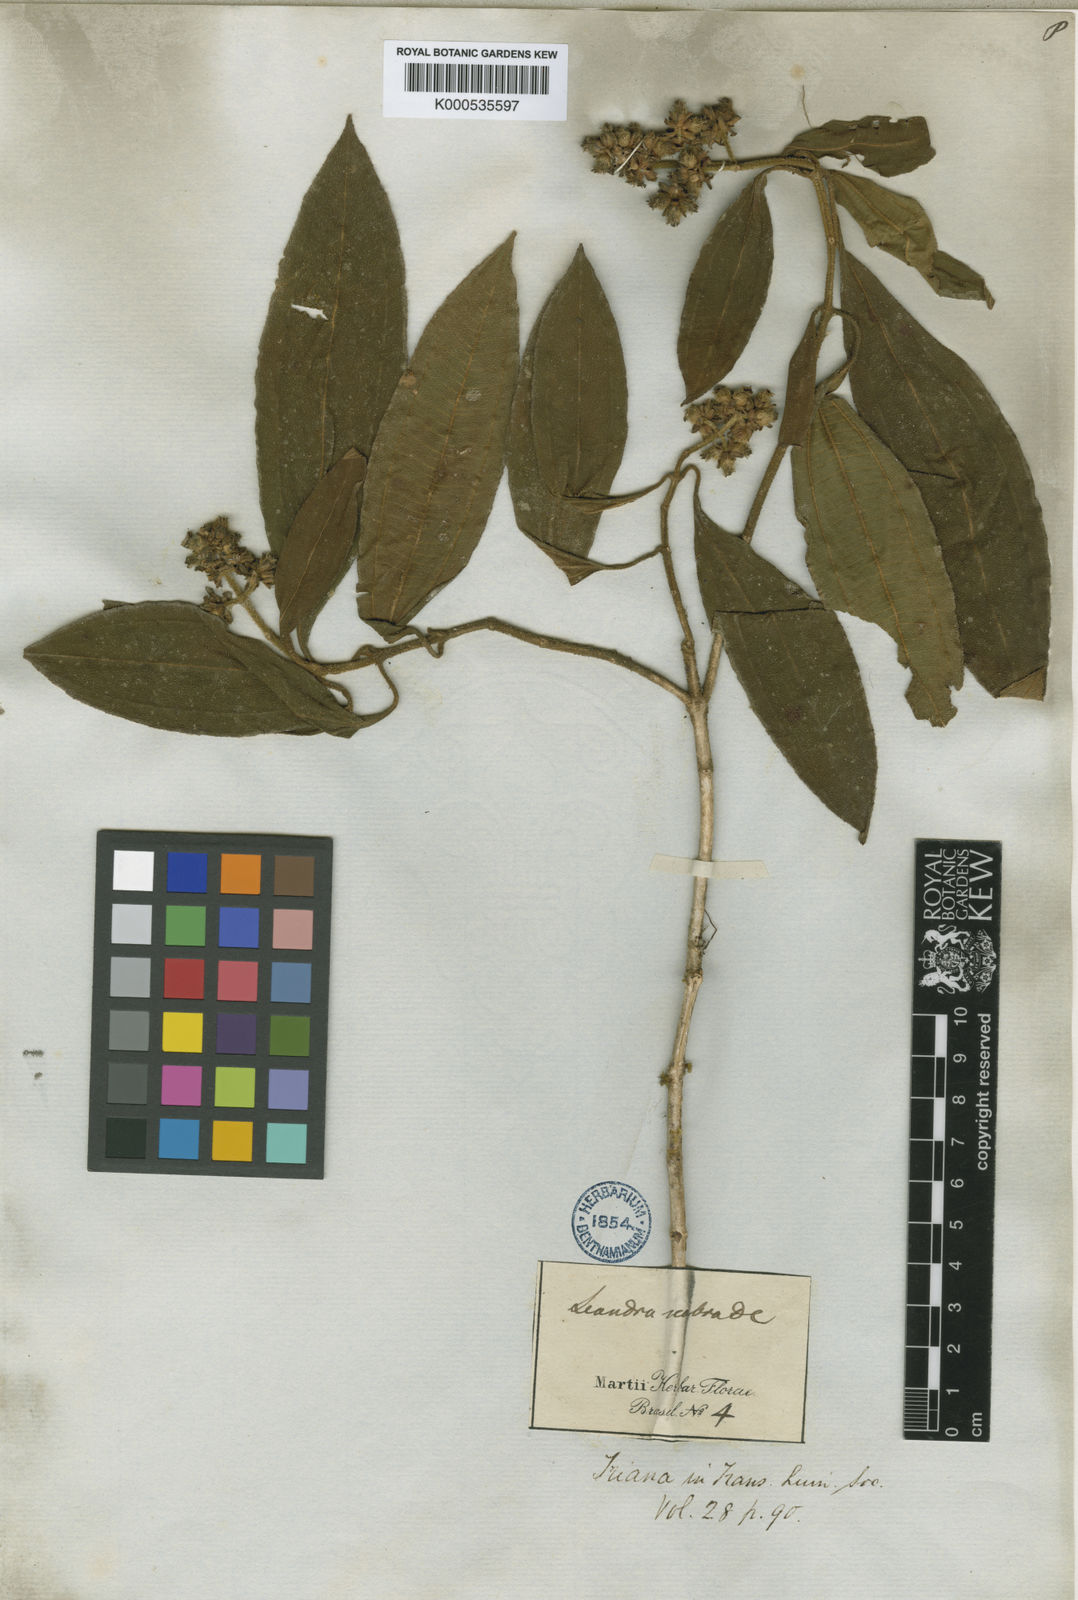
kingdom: Plantae
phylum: Tracheophyta
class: Magnoliopsida
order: Myrtales
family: Melastomataceae
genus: Miconia
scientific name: Miconia melastomoides
